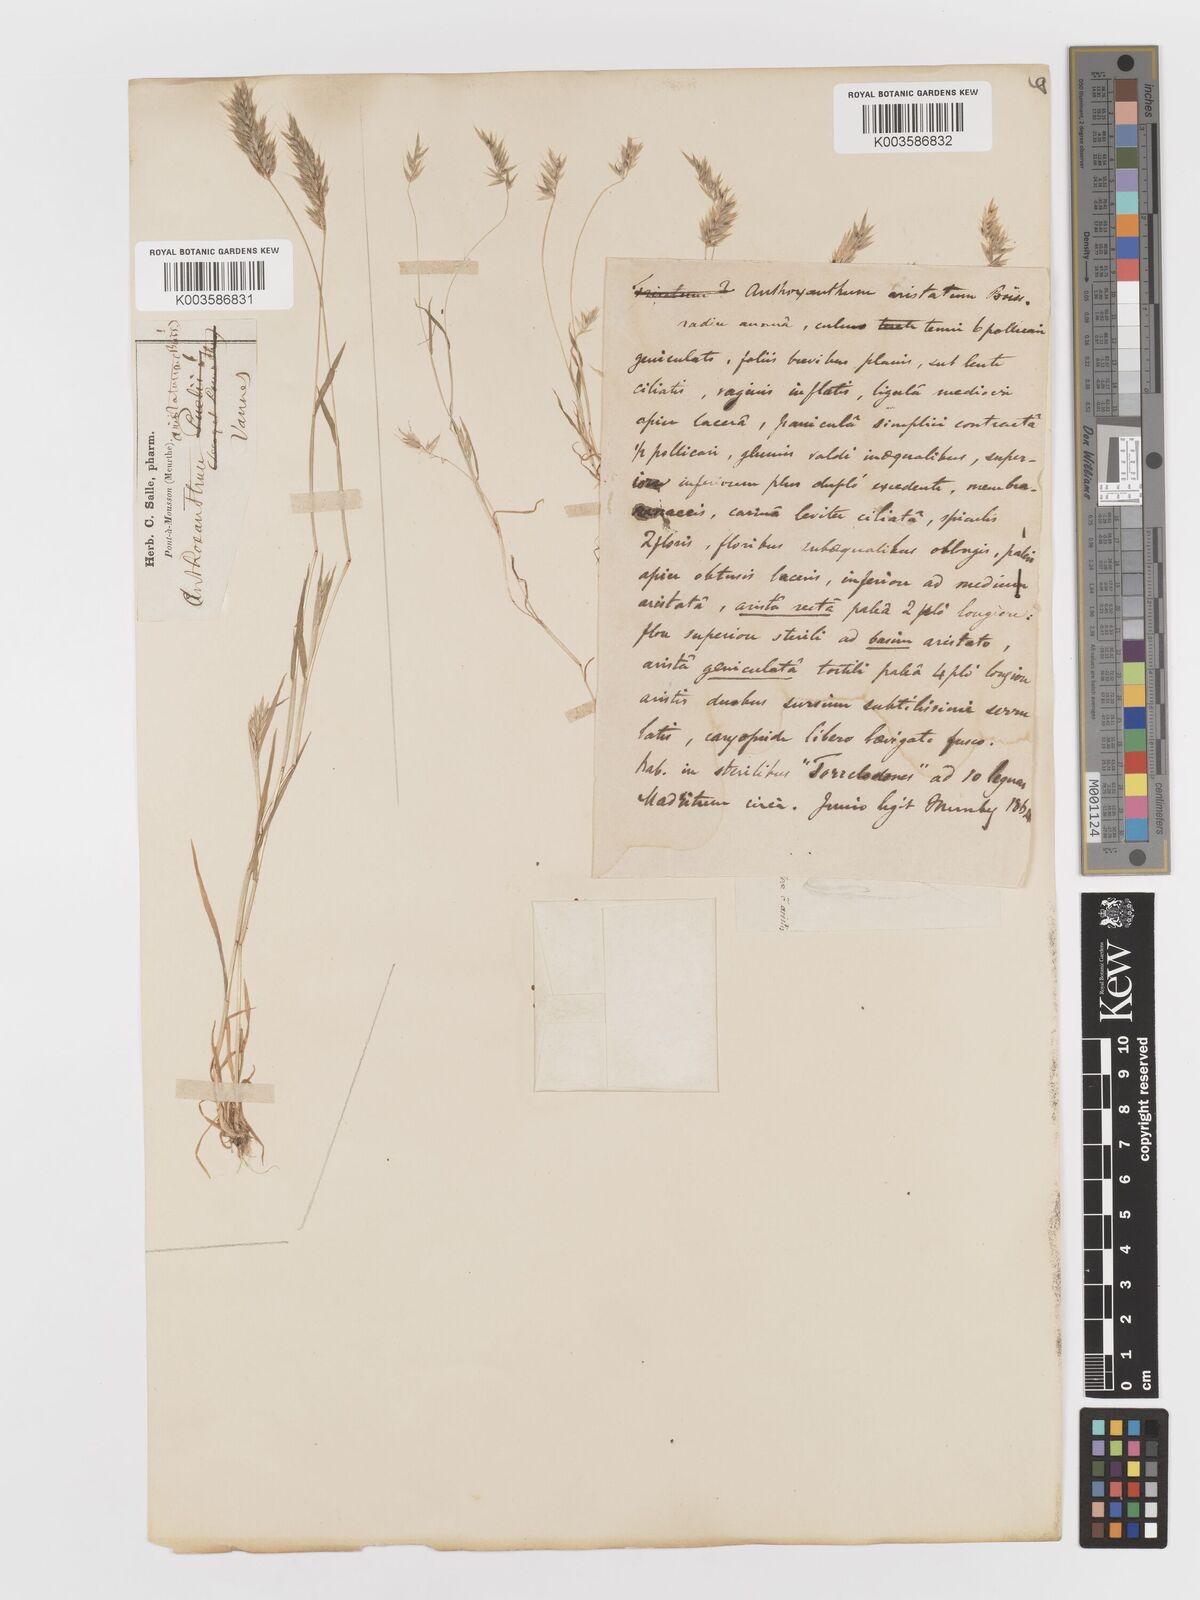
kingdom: Plantae
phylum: Tracheophyta
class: Liliopsida
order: Poales
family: Poaceae
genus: Anthoxanthum
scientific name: Anthoxanthum
